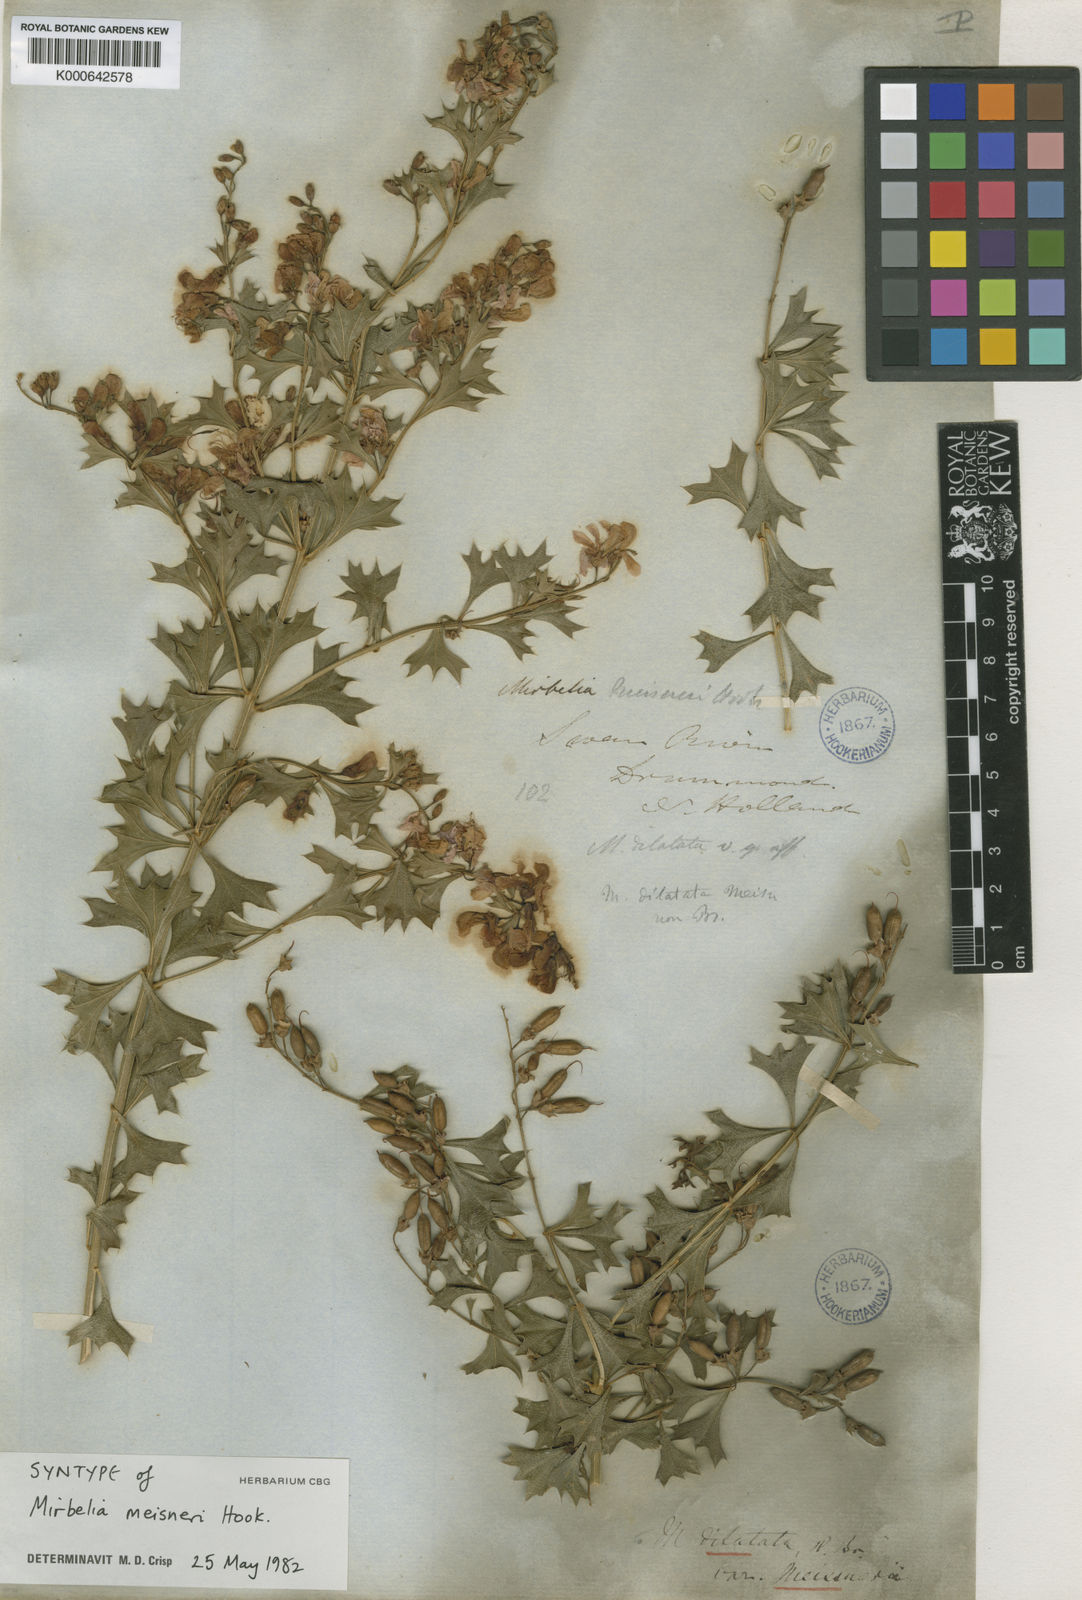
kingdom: Plantae
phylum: Tracheophyta
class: Magnoliopsida
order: Fabales
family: Fabaceae
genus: Mirbelia
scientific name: Mirbelia dilatata
